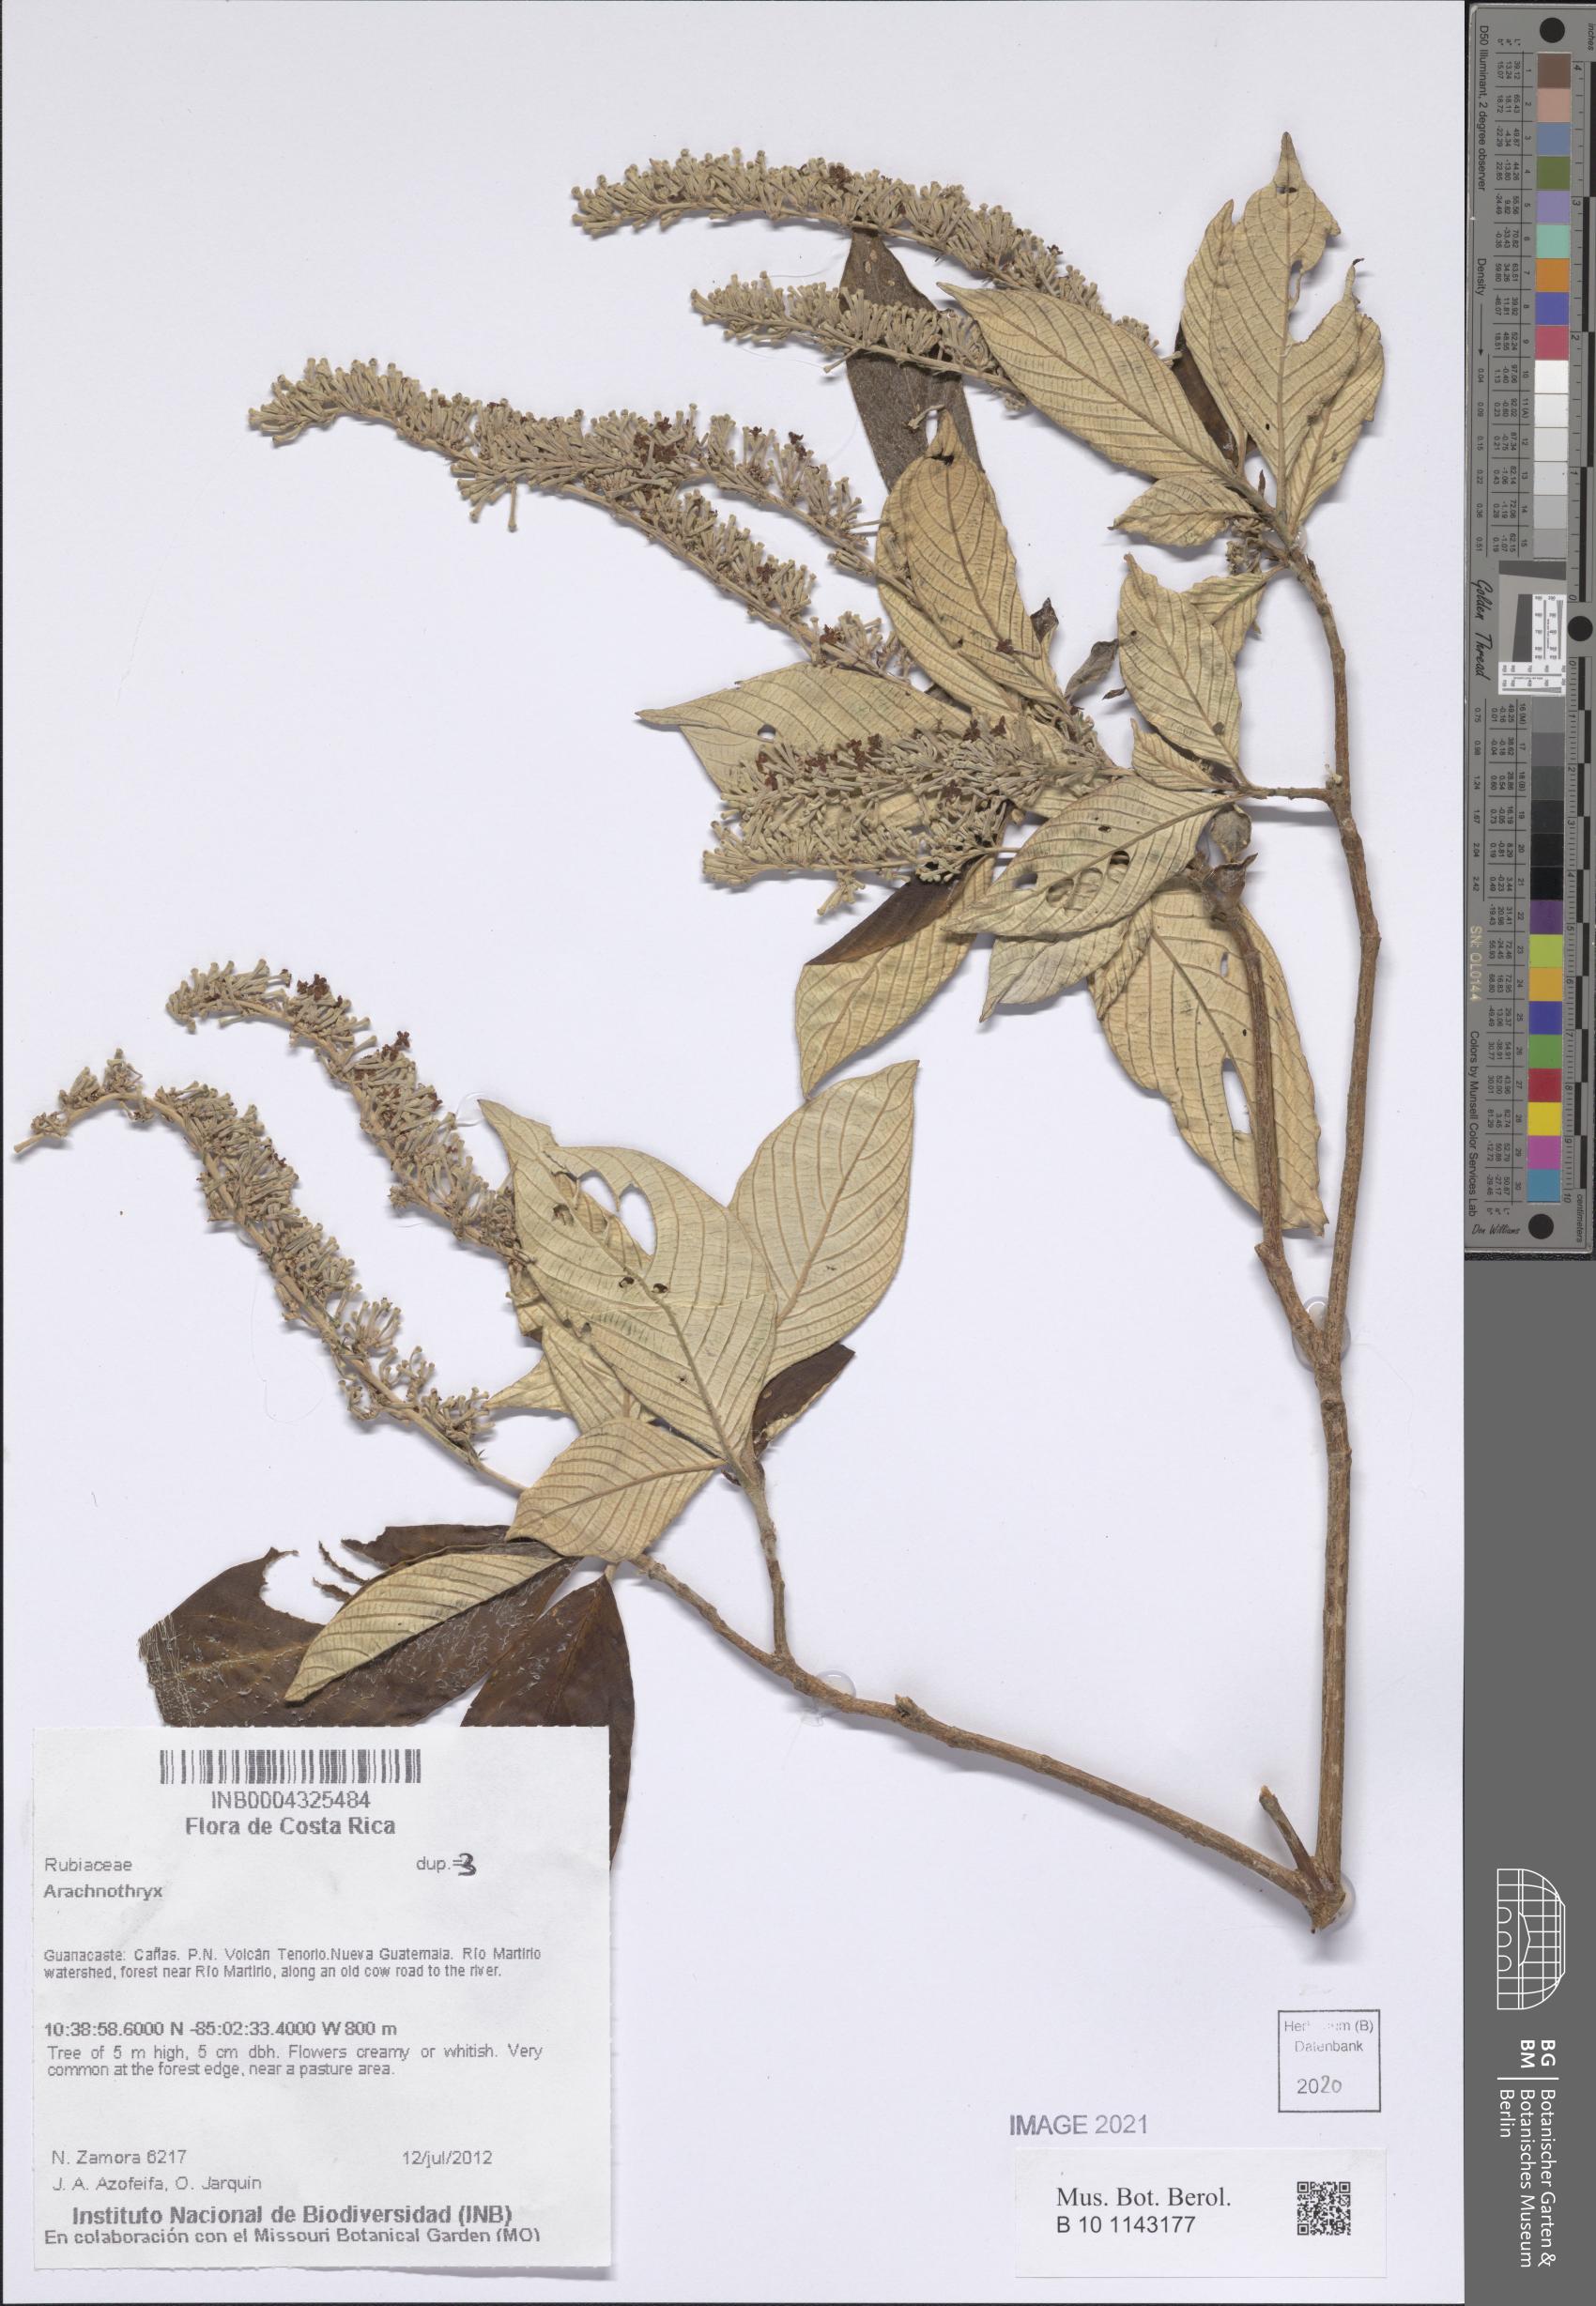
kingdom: Plantae
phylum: Tracheophyta
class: Magnoliopsida
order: Gentianales
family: Rubiaceae
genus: Arachnothryx
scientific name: Arachnothryx
